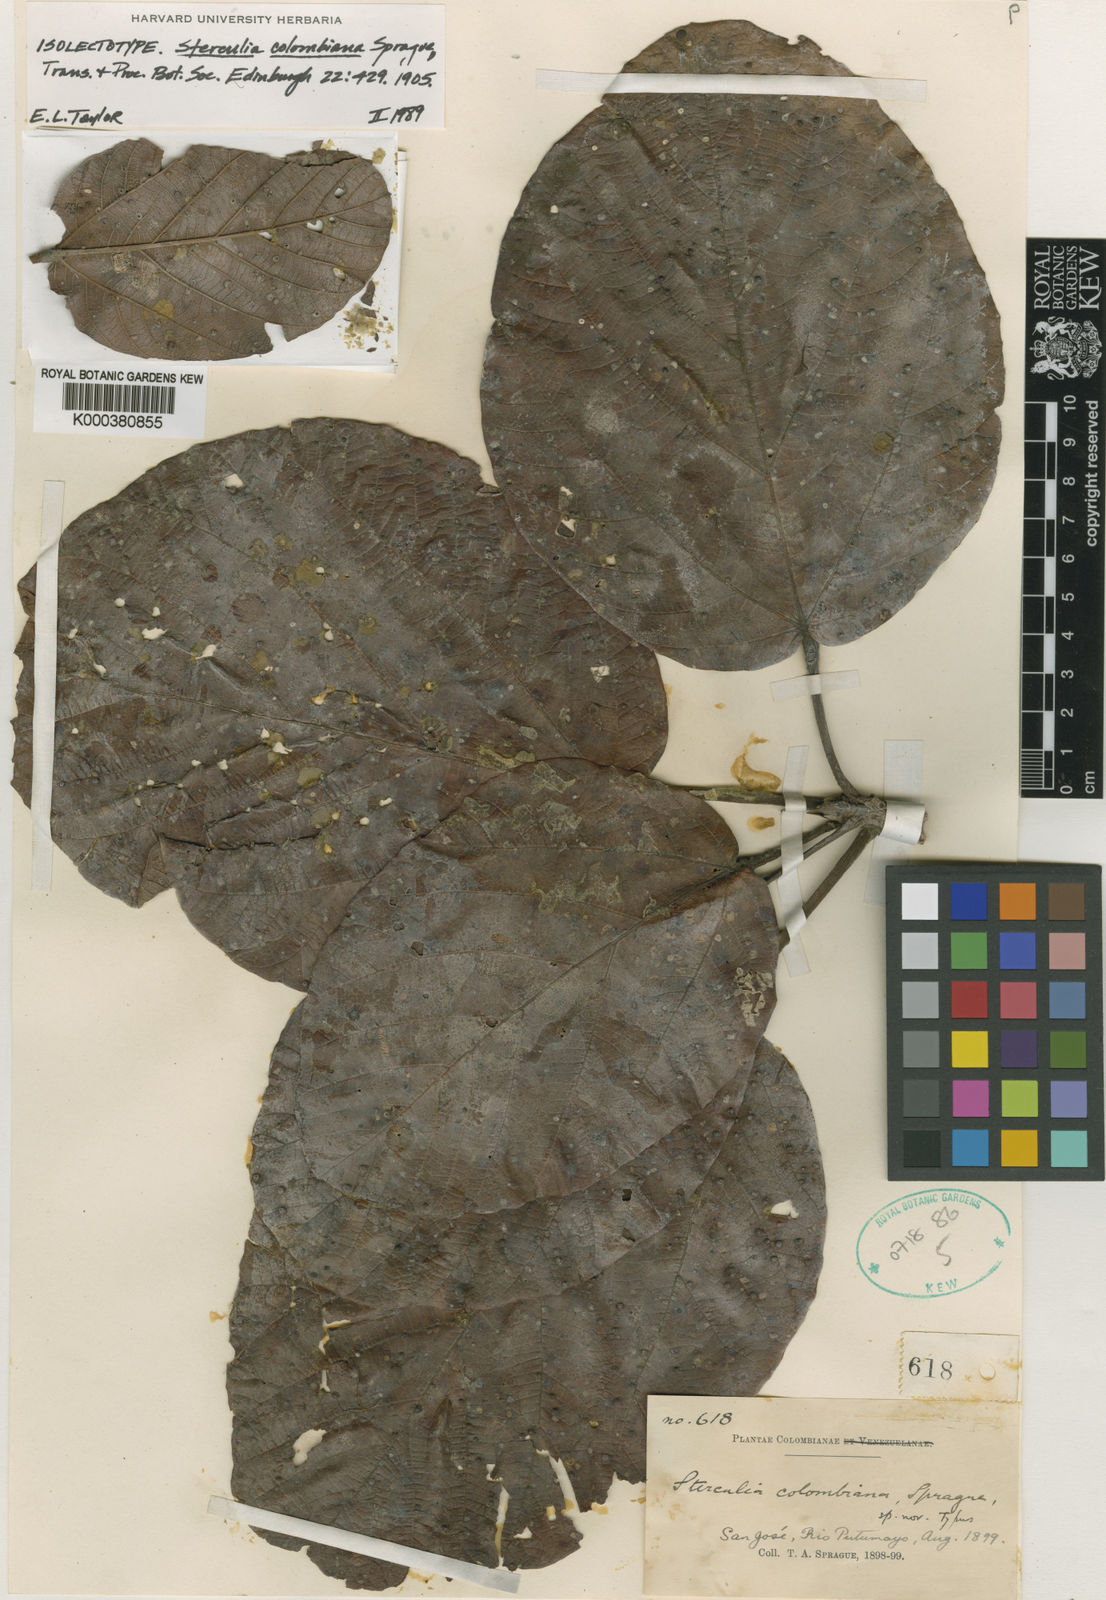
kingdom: Plantae
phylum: Tracheophyta
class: Magnoliopsida
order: Malvales
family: Malvaceae
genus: Sterculia
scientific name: Sterculia colombiana
